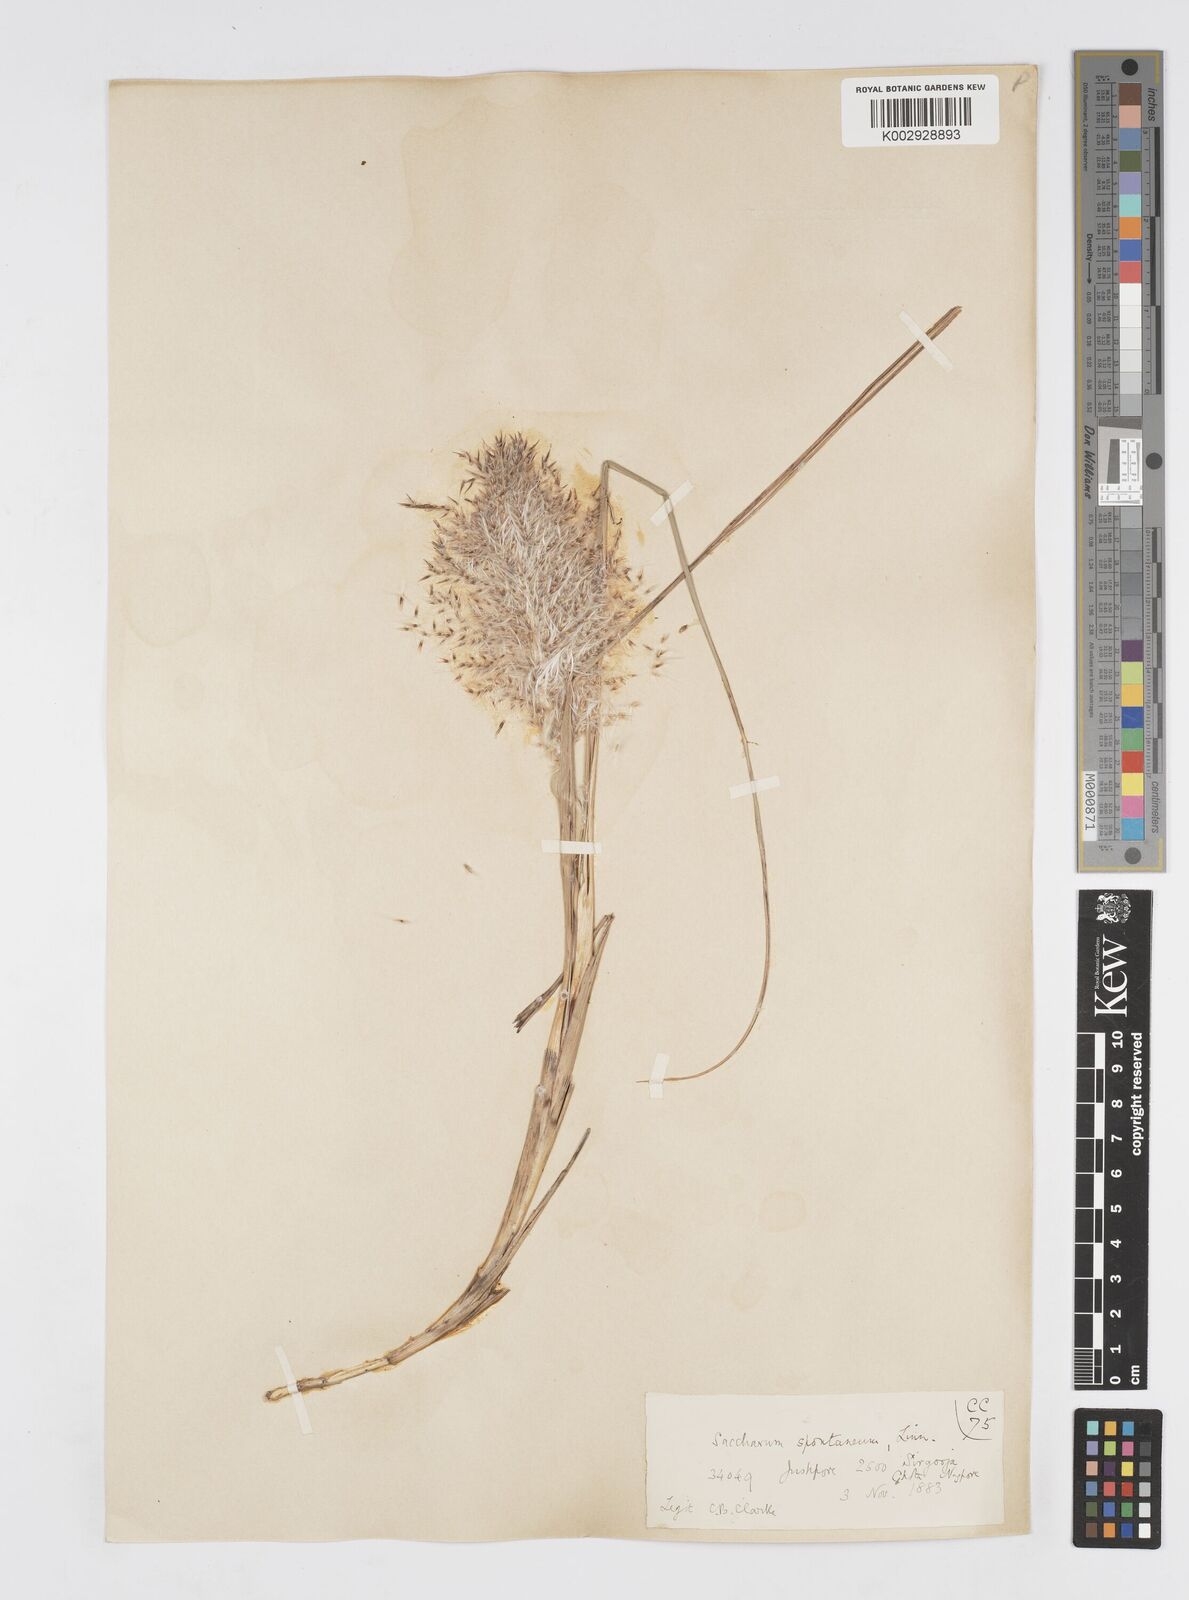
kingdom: Plantae
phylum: Tracheophyta
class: Liliopsida
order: Poales
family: Poaceae
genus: Saccharum
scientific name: Saccharum spontaneum
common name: Wild sugarcane
